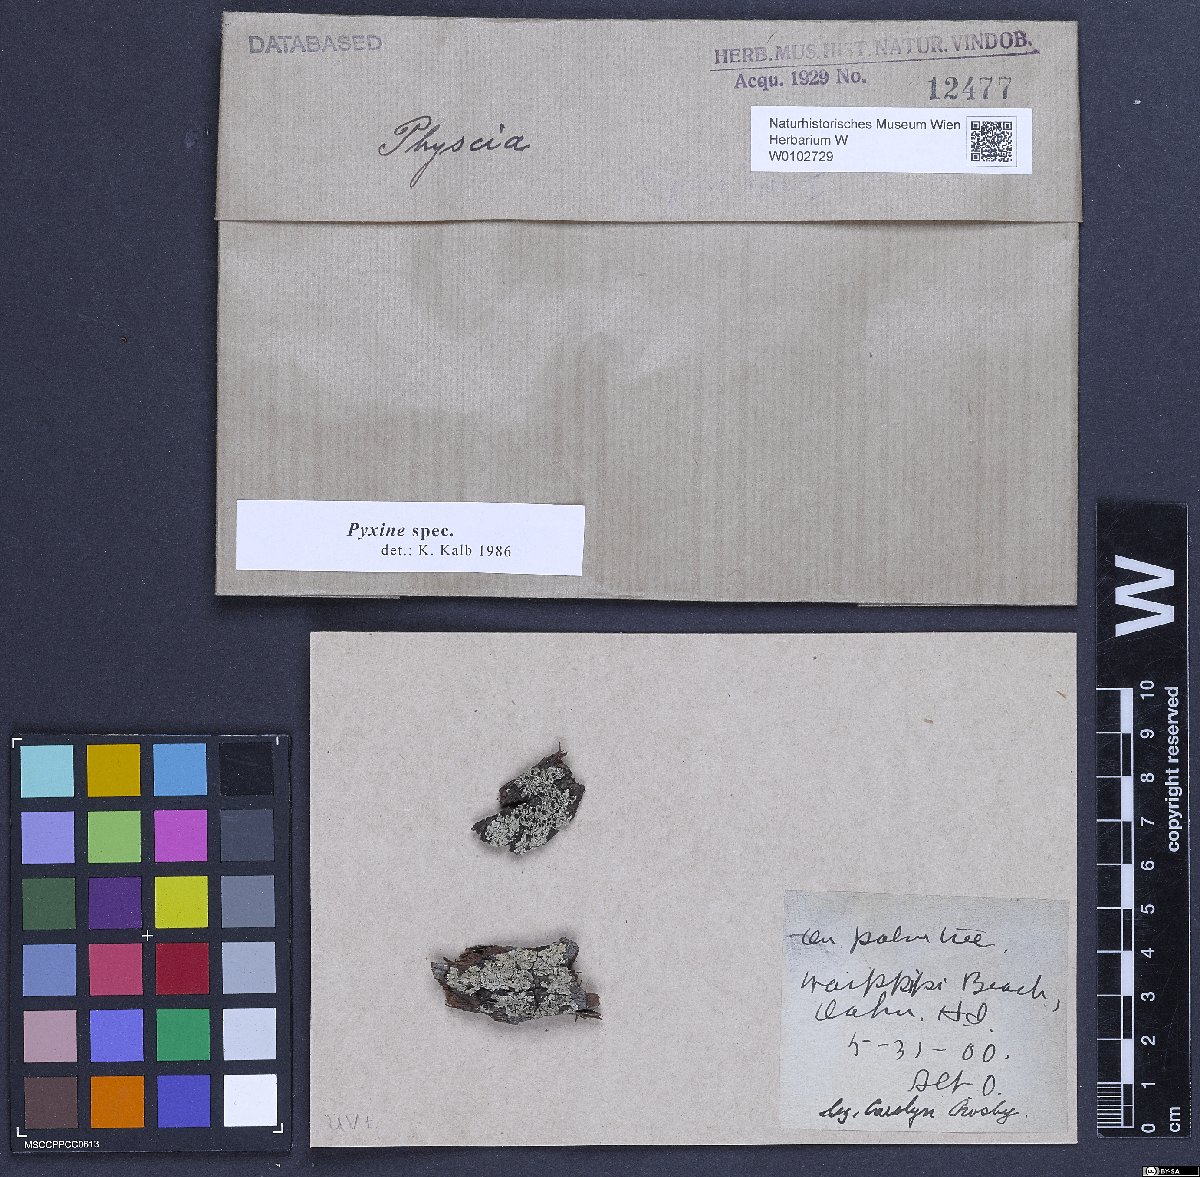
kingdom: Fungi
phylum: Ascomycota
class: Lecanoromycetes
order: Caliciales
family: Caliciaceae
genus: Pyxine
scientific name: Pyxine
